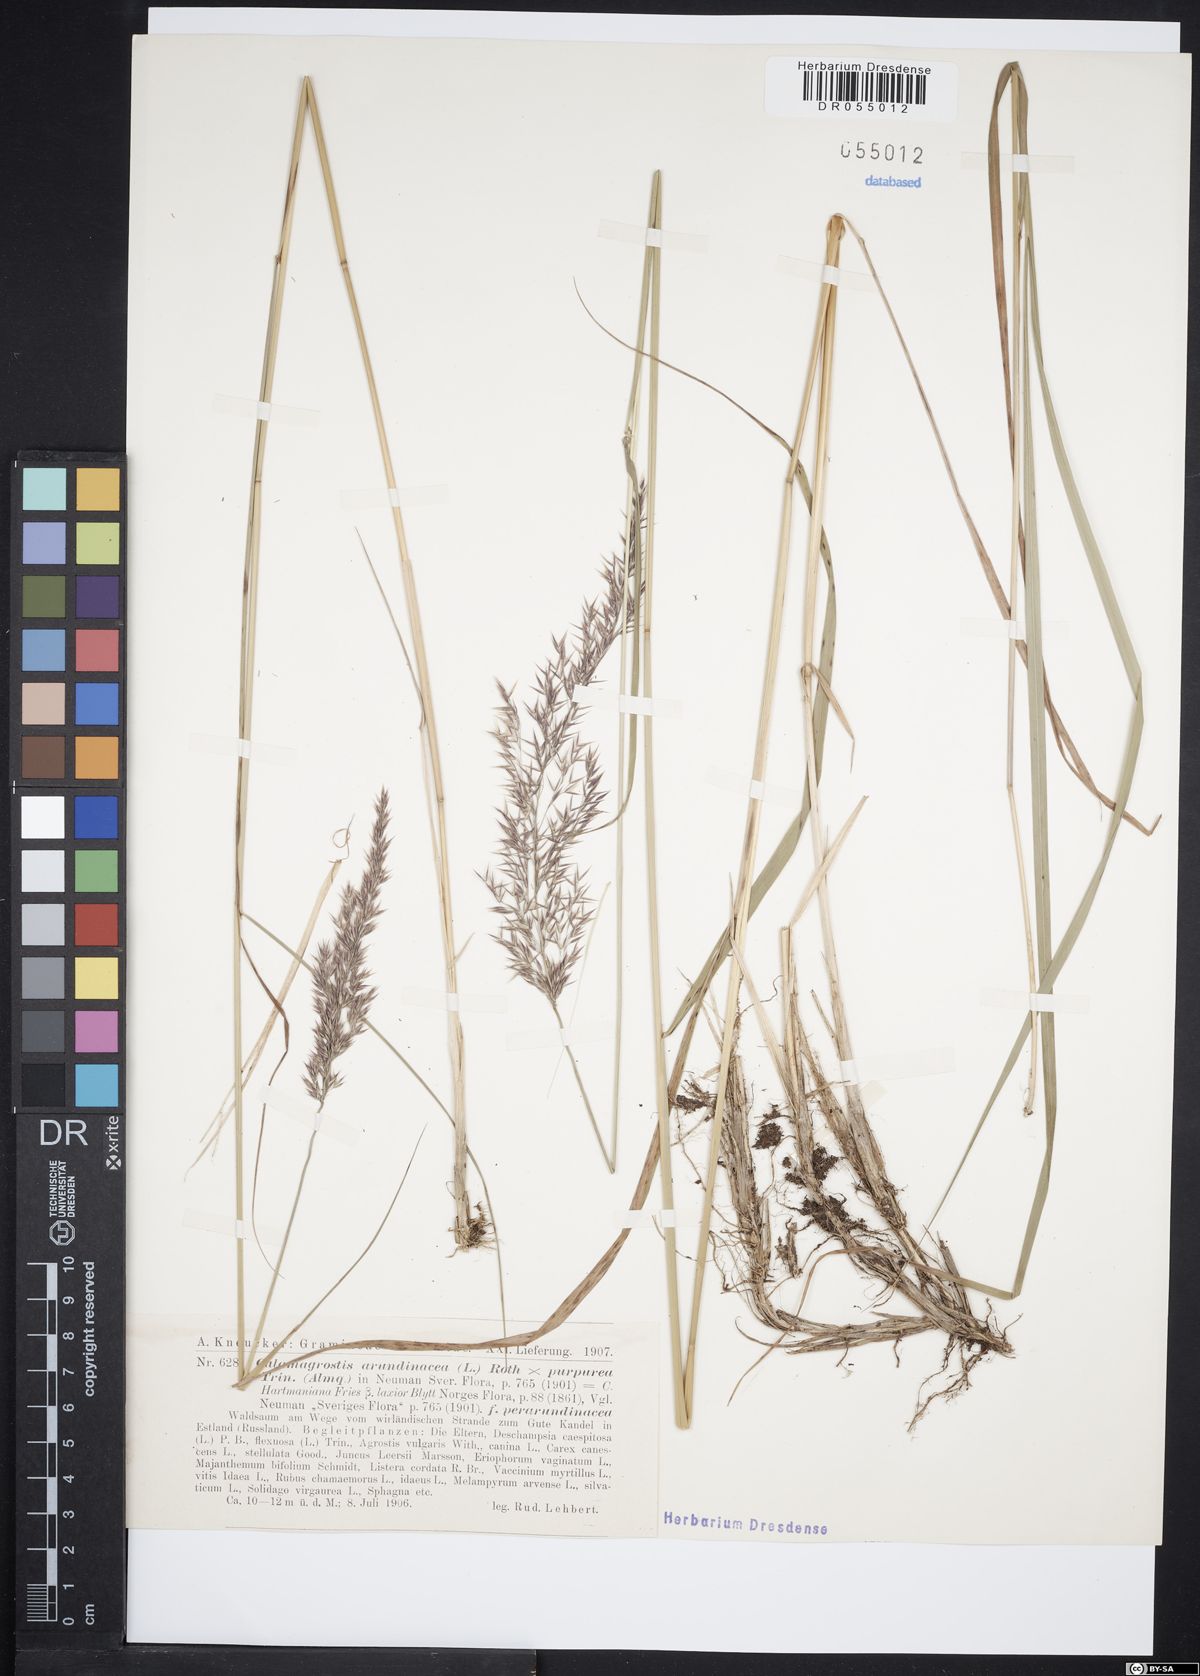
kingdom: Plantae
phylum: Tracheophyta
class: Liliopsida
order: Poales
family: Poaceae
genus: Calamagrostis
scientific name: Calamagrostis hartmaniana
